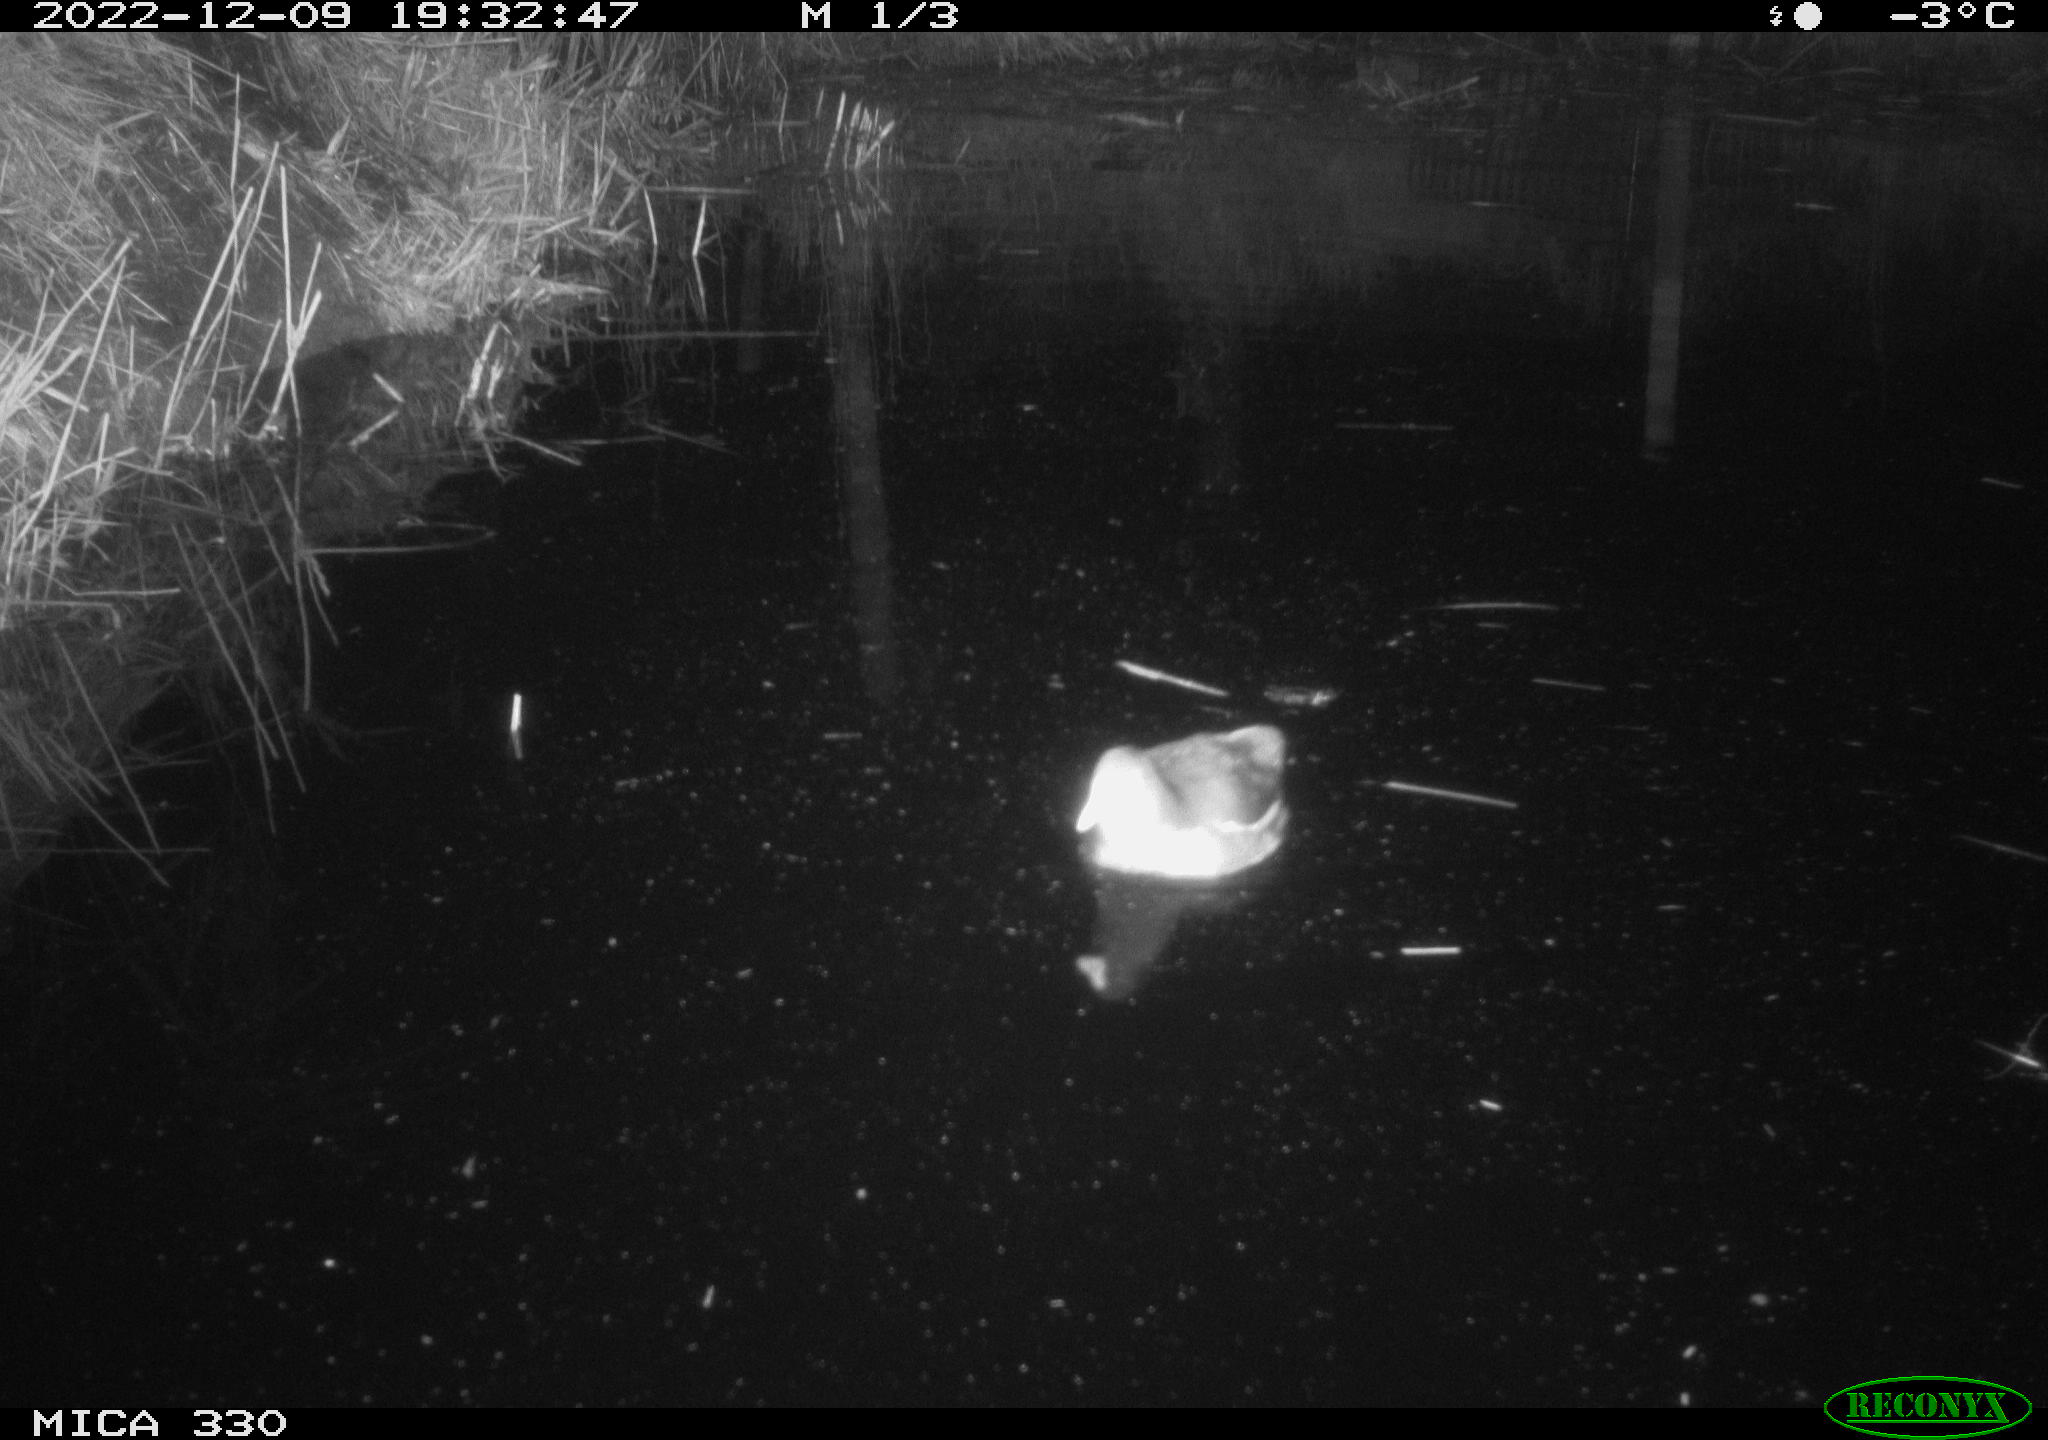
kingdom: Animalia
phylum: Chordata
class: Aves
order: Gruiformes
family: Rallidae
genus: Gallinula
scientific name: Gallinula chloropus
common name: Common moorhen
